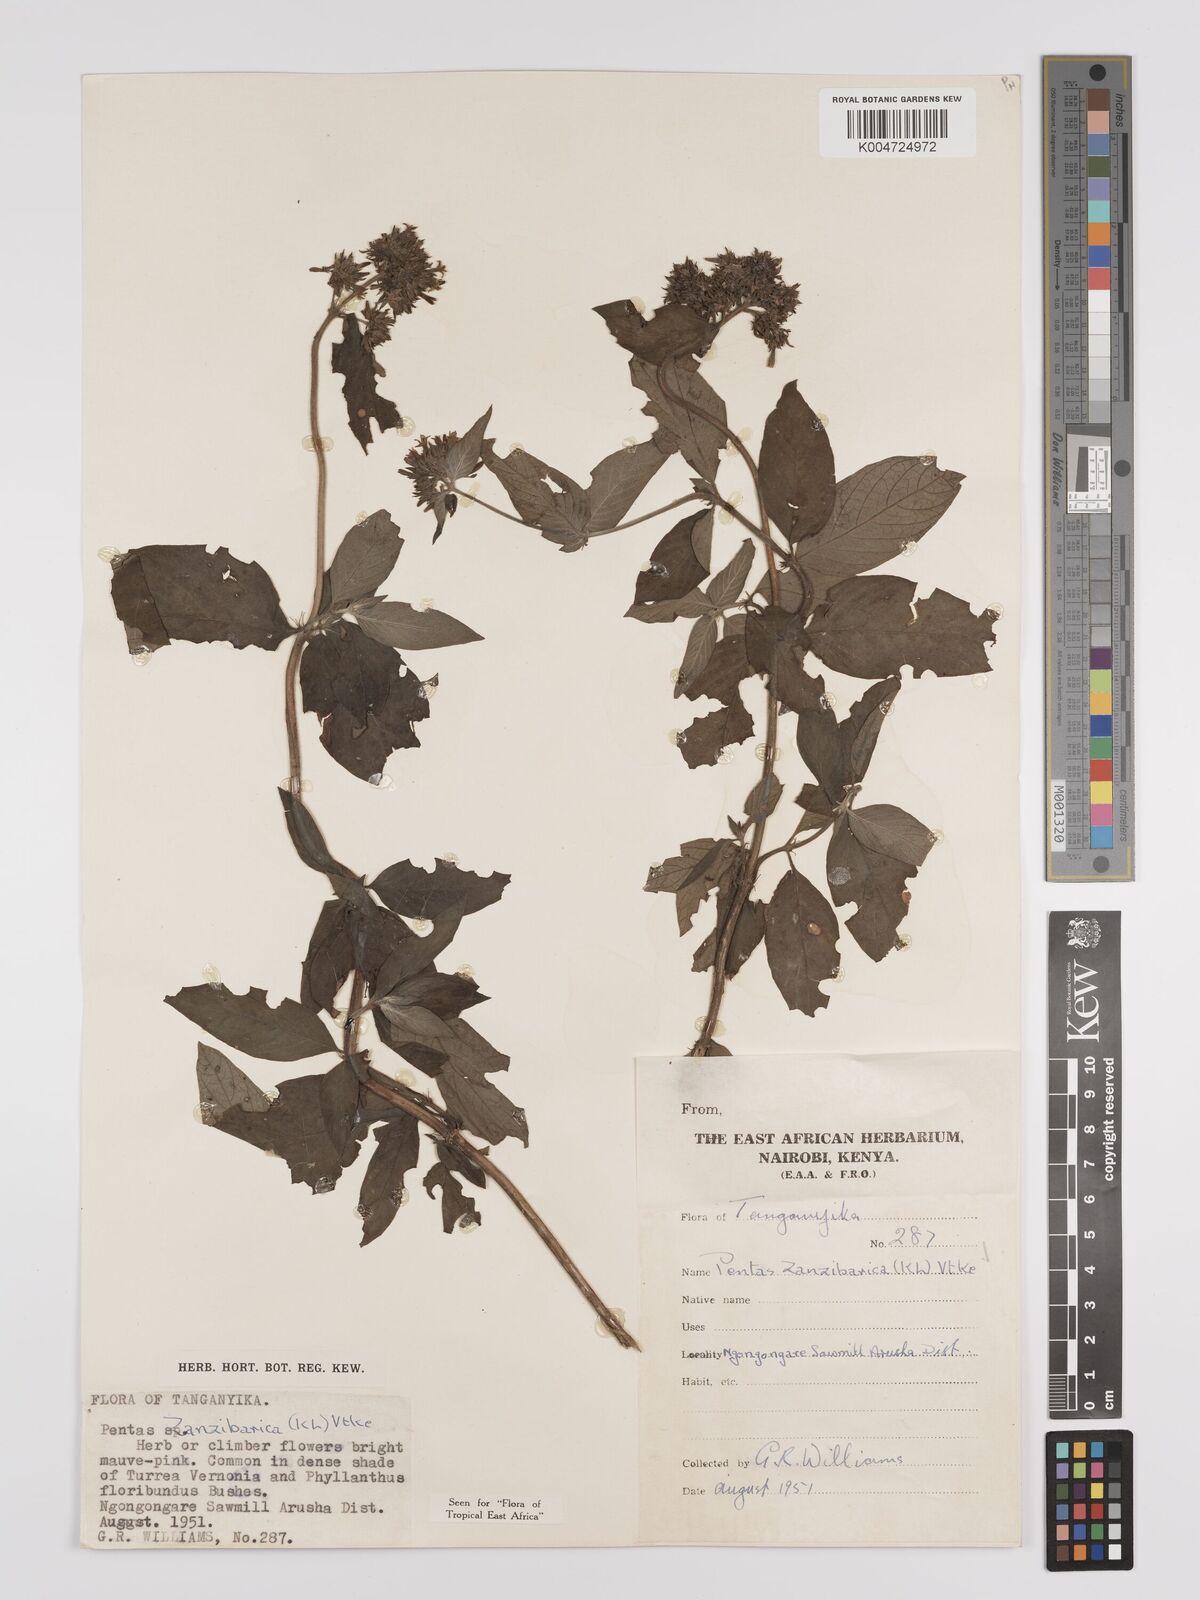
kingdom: Plantae
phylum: Tracheophyta
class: Magnoliopsida
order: Gentianales
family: Rubiaceae
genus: Pentas
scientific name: Pentas zanzibarica
